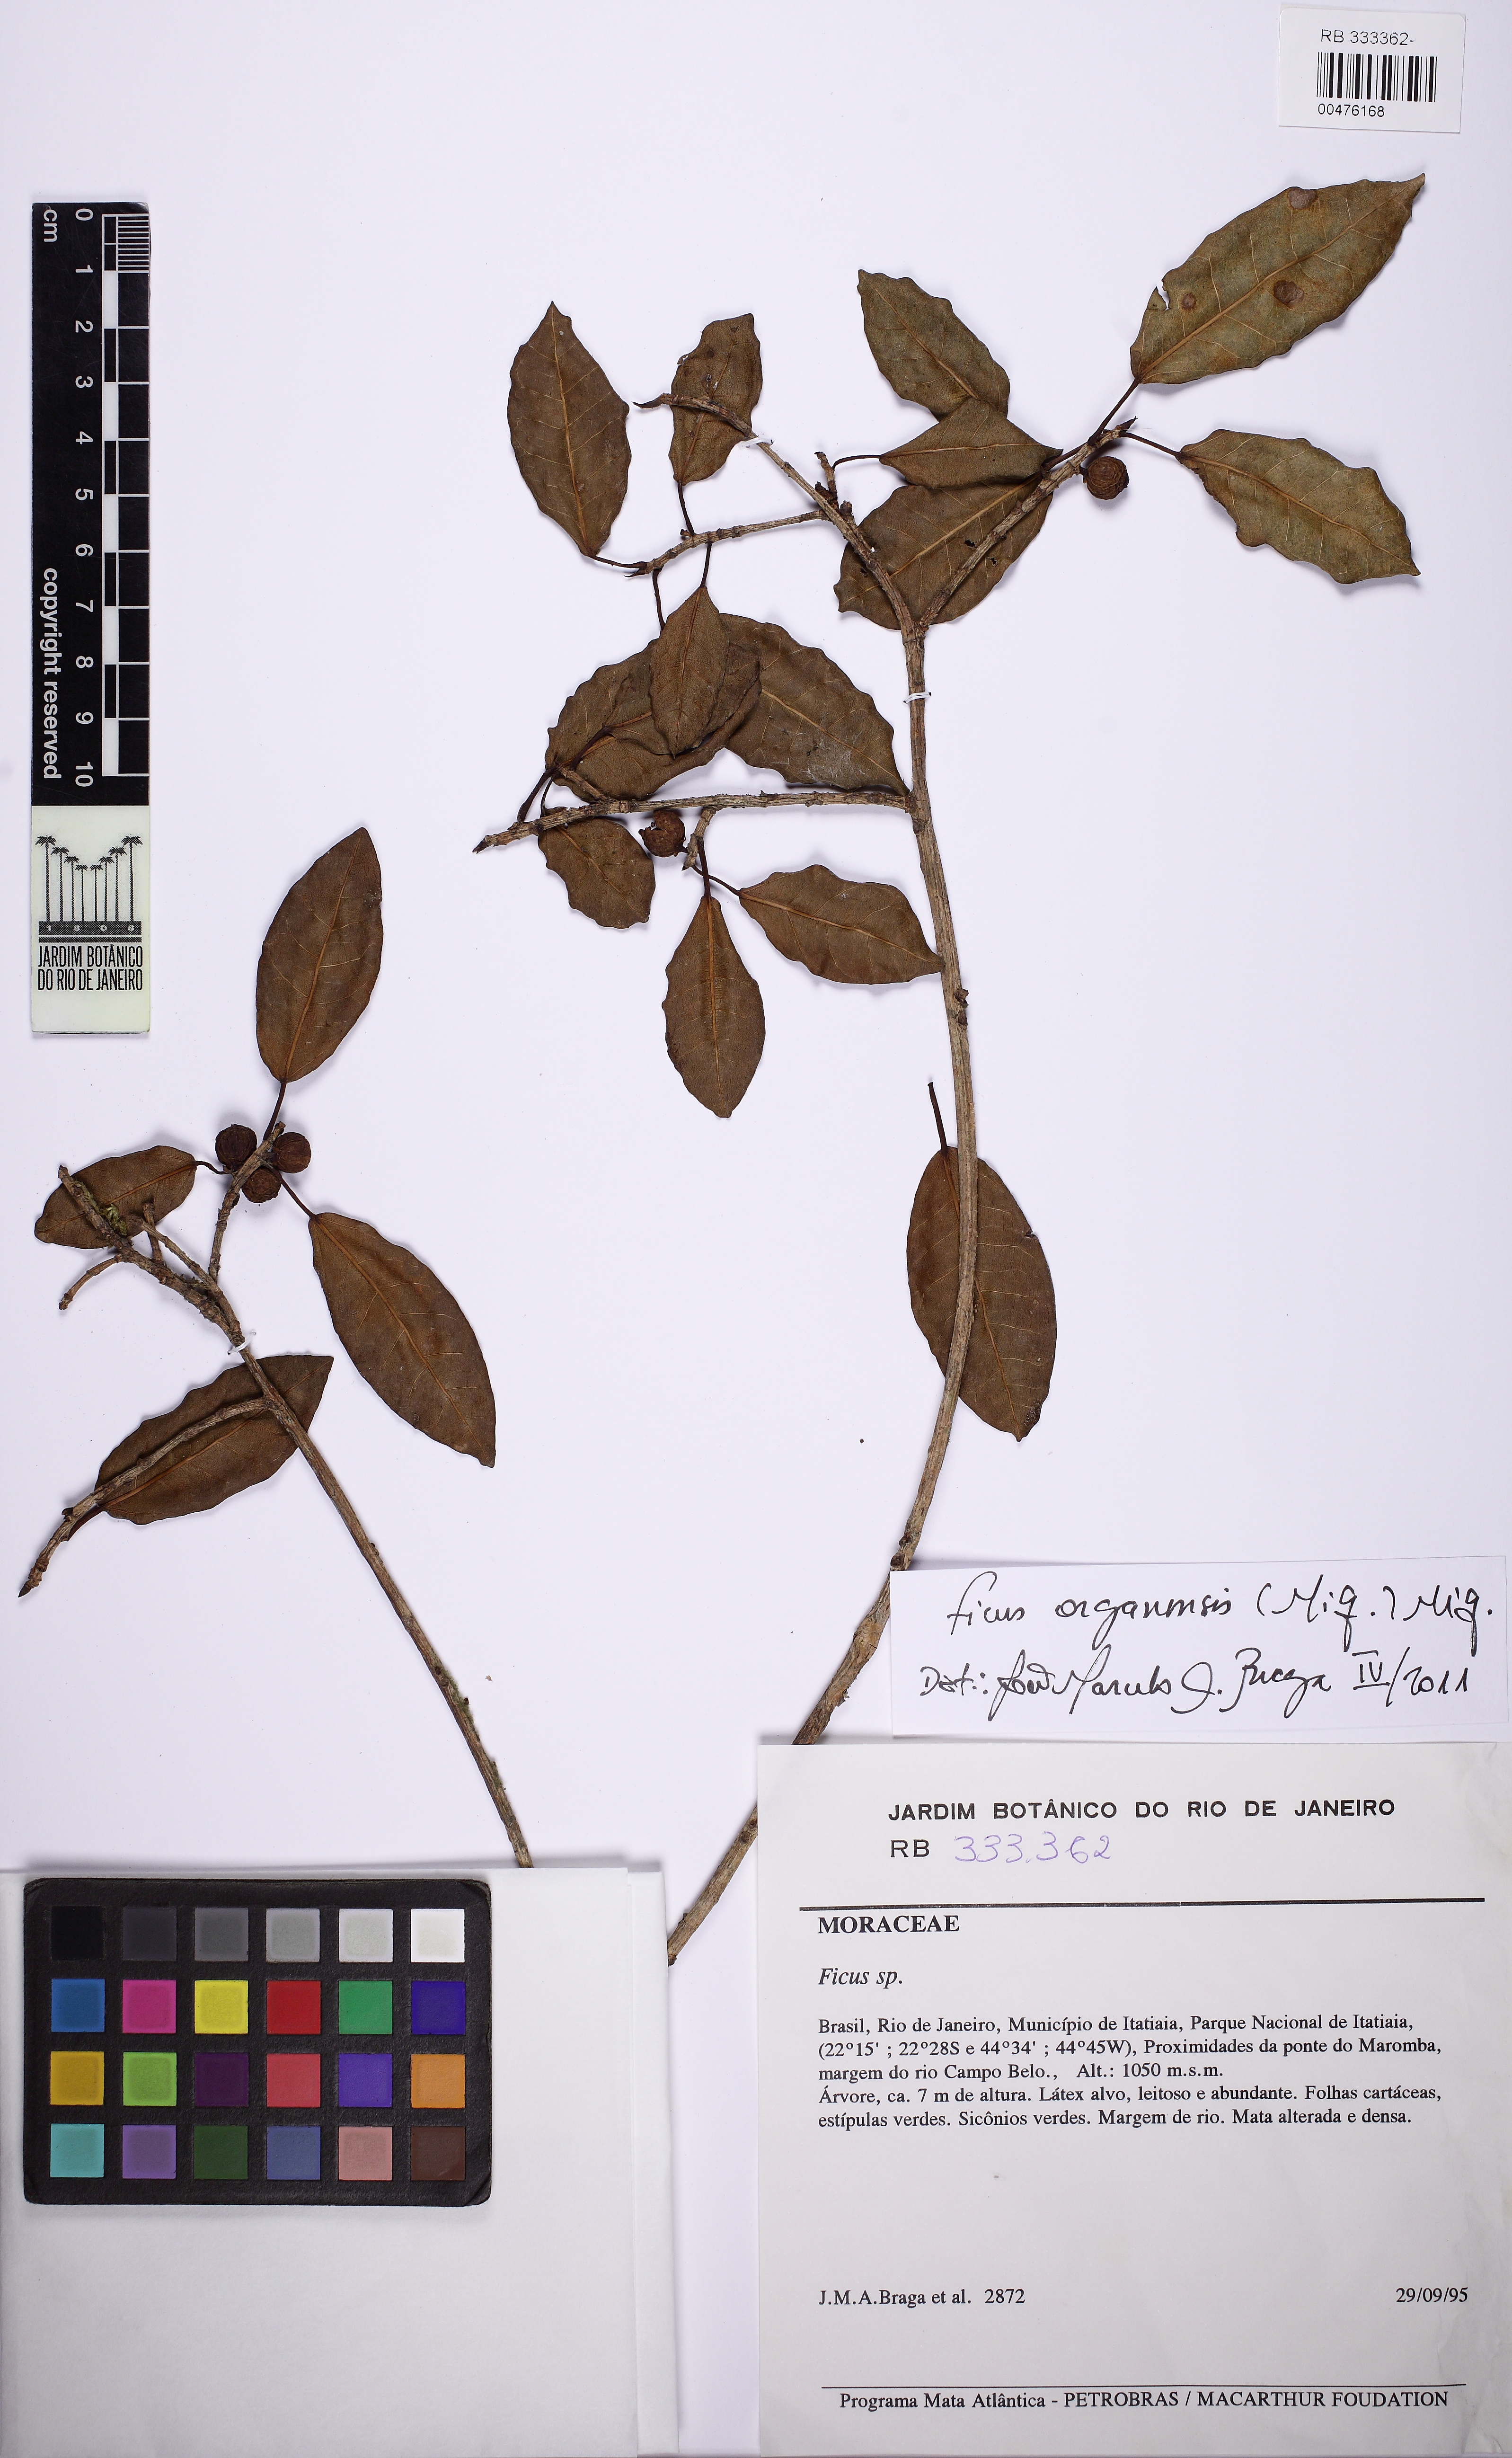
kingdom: Plantae
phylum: Tracheophyta
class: Magnoliopsida
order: Rosales
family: Moraceae
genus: Ficus
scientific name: Ficus organensis
